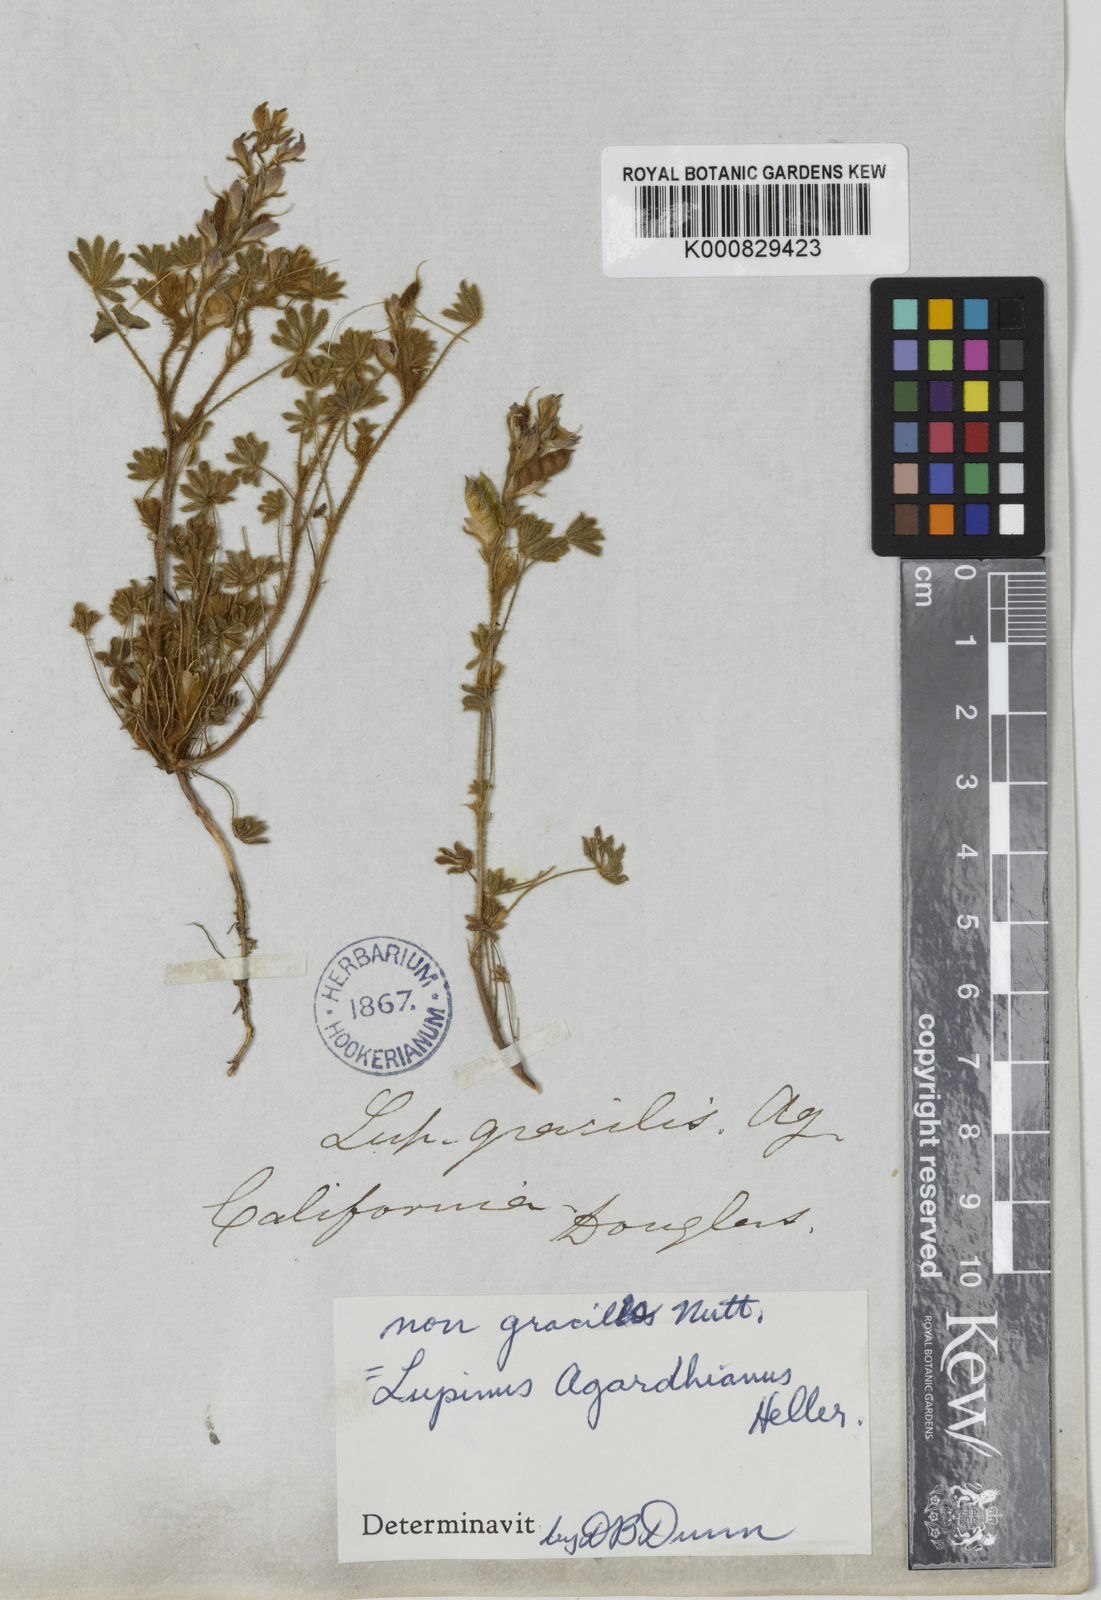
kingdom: Plantae
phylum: Tracheophyta
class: Magnoliopsida
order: Fabales
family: Fabaceae
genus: Lupinus
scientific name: Lupinus agardhianus
